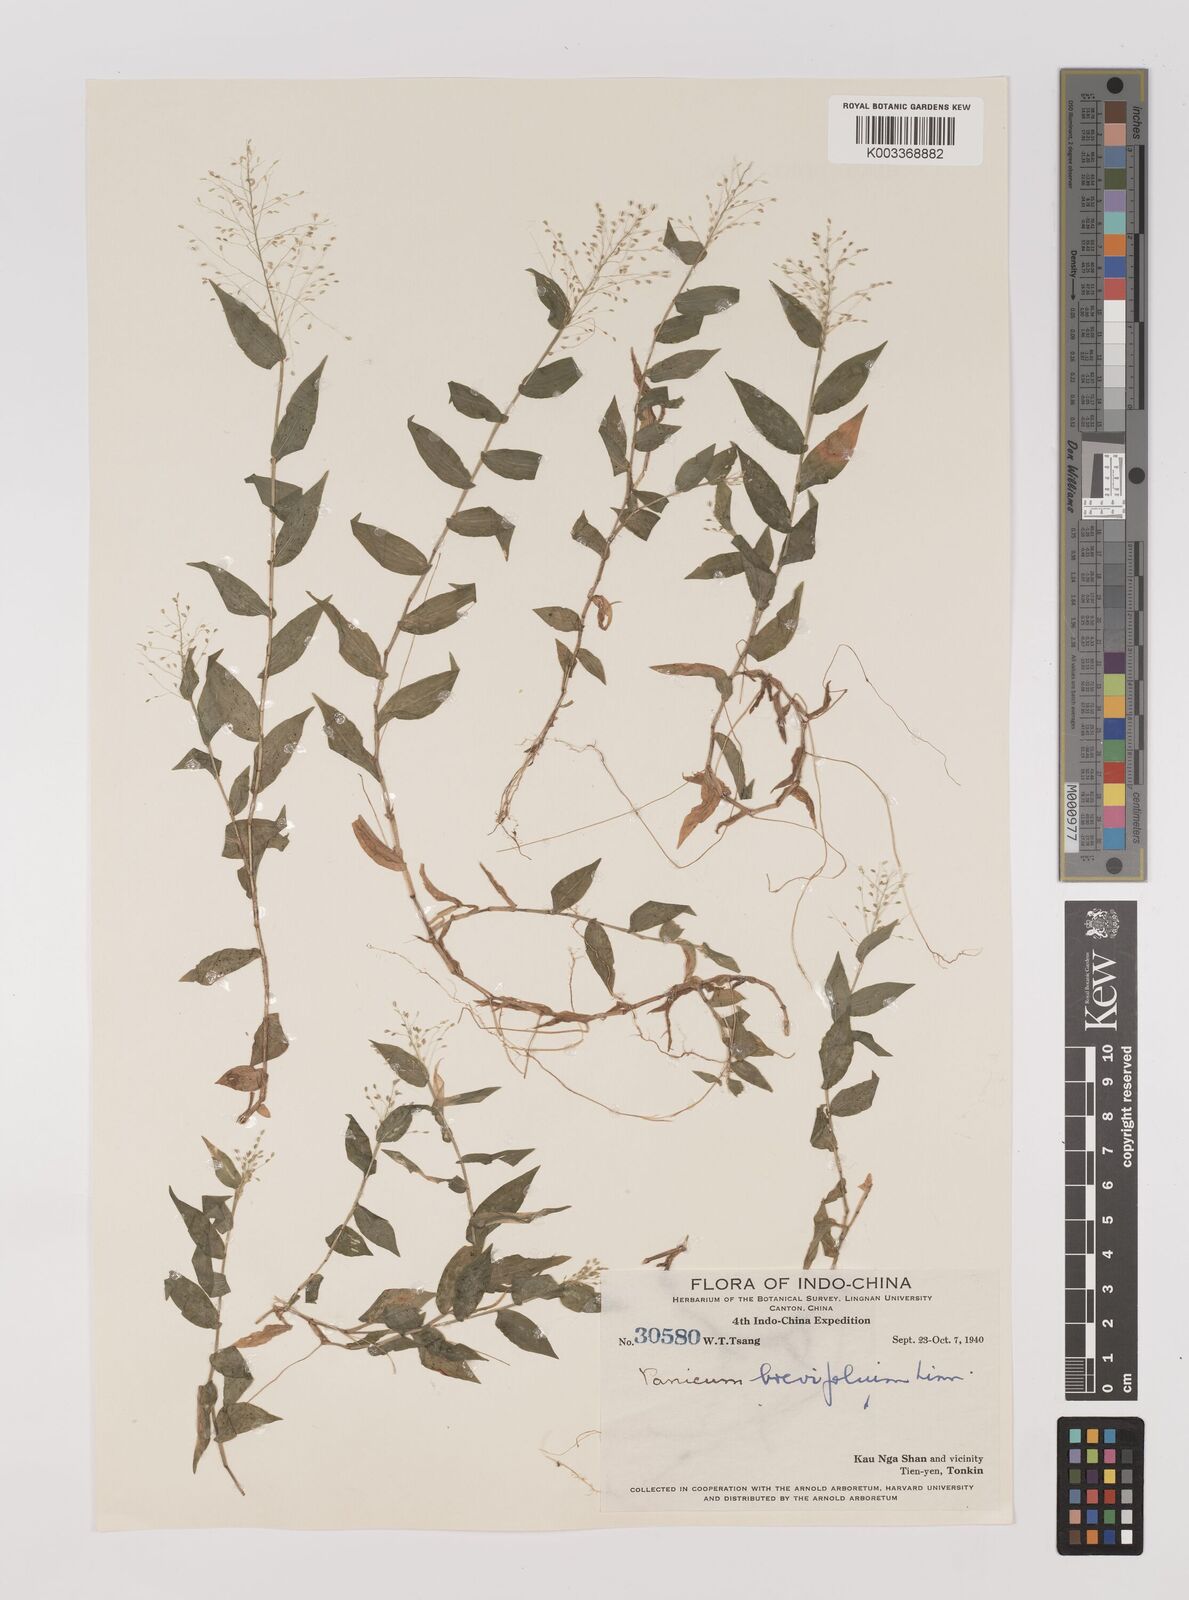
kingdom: Plantae
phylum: Tracheophyta
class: Liliopsida
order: Poales
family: Poaceae
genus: Panicum
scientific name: Panicum brevifolium
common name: Shortleaf panic grass
